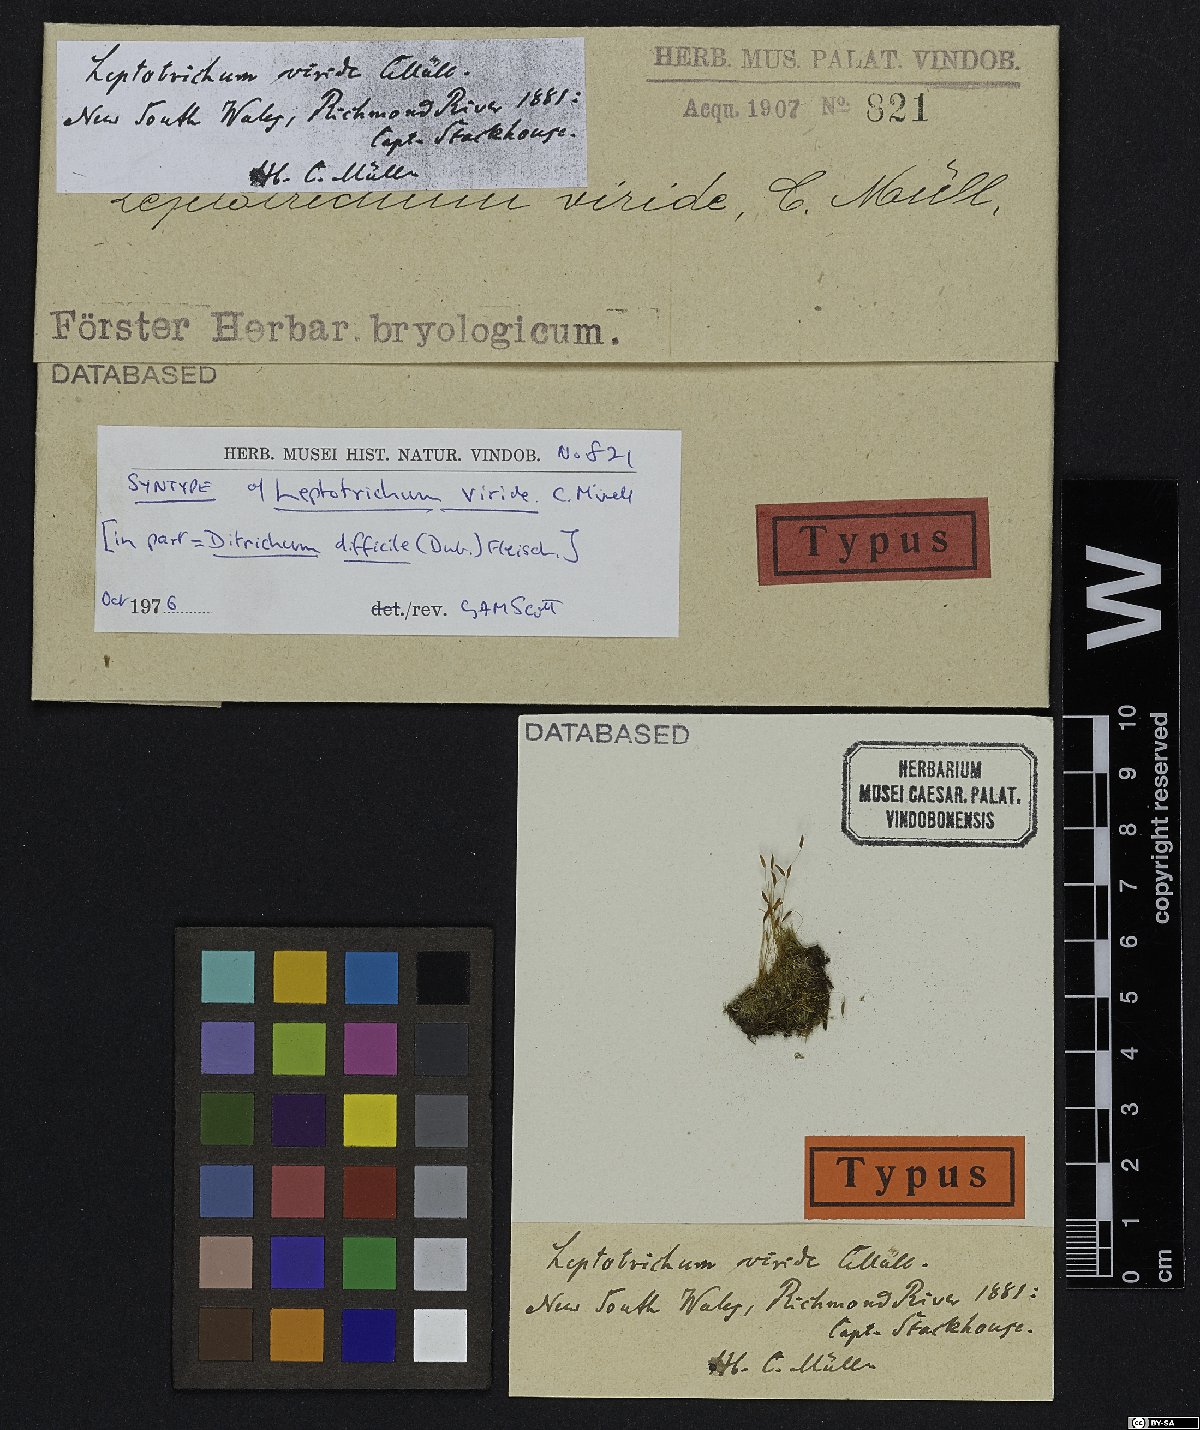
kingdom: Plantae
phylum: Bryophyta
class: Bryopsida
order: Dicranales
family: Ditrichaceae
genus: Ditrichum
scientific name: Ditrichum difficile
